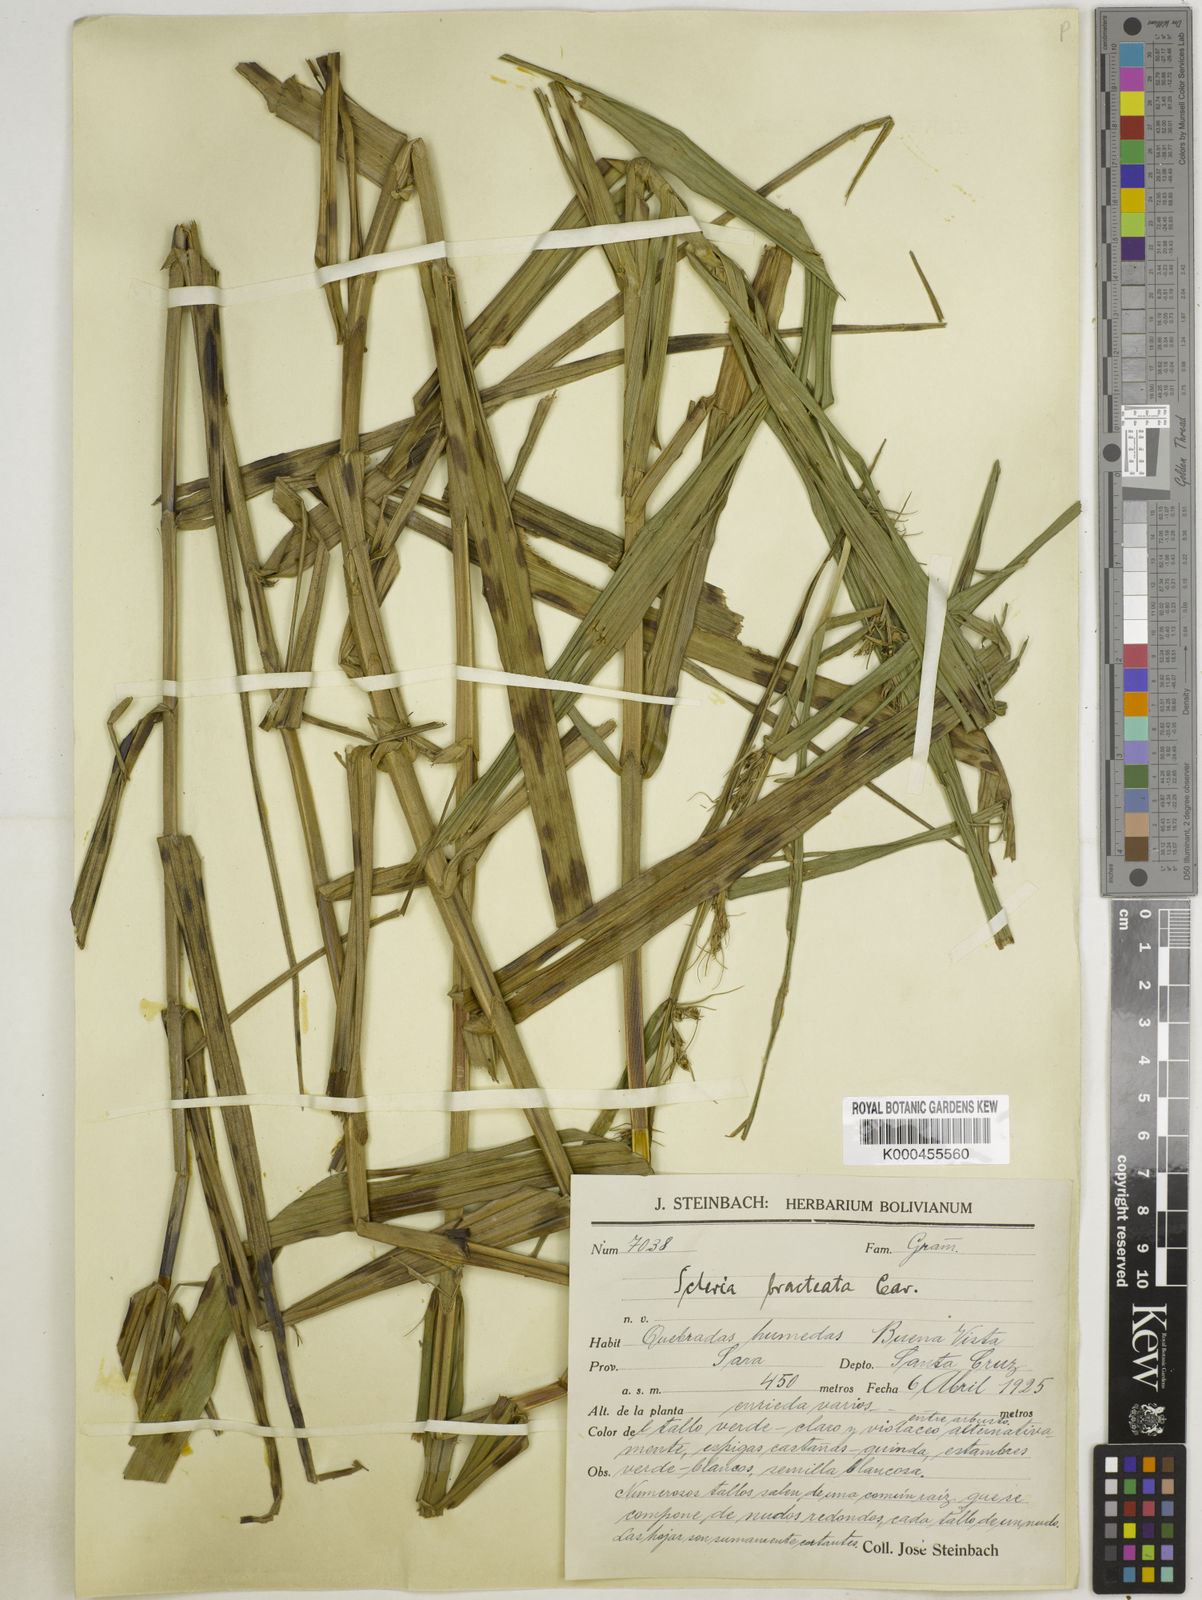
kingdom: Plantae
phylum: Tracheophyta
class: Liliopsida
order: Poales
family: Cyperaceae
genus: Scleria
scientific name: Scleria bracteata
